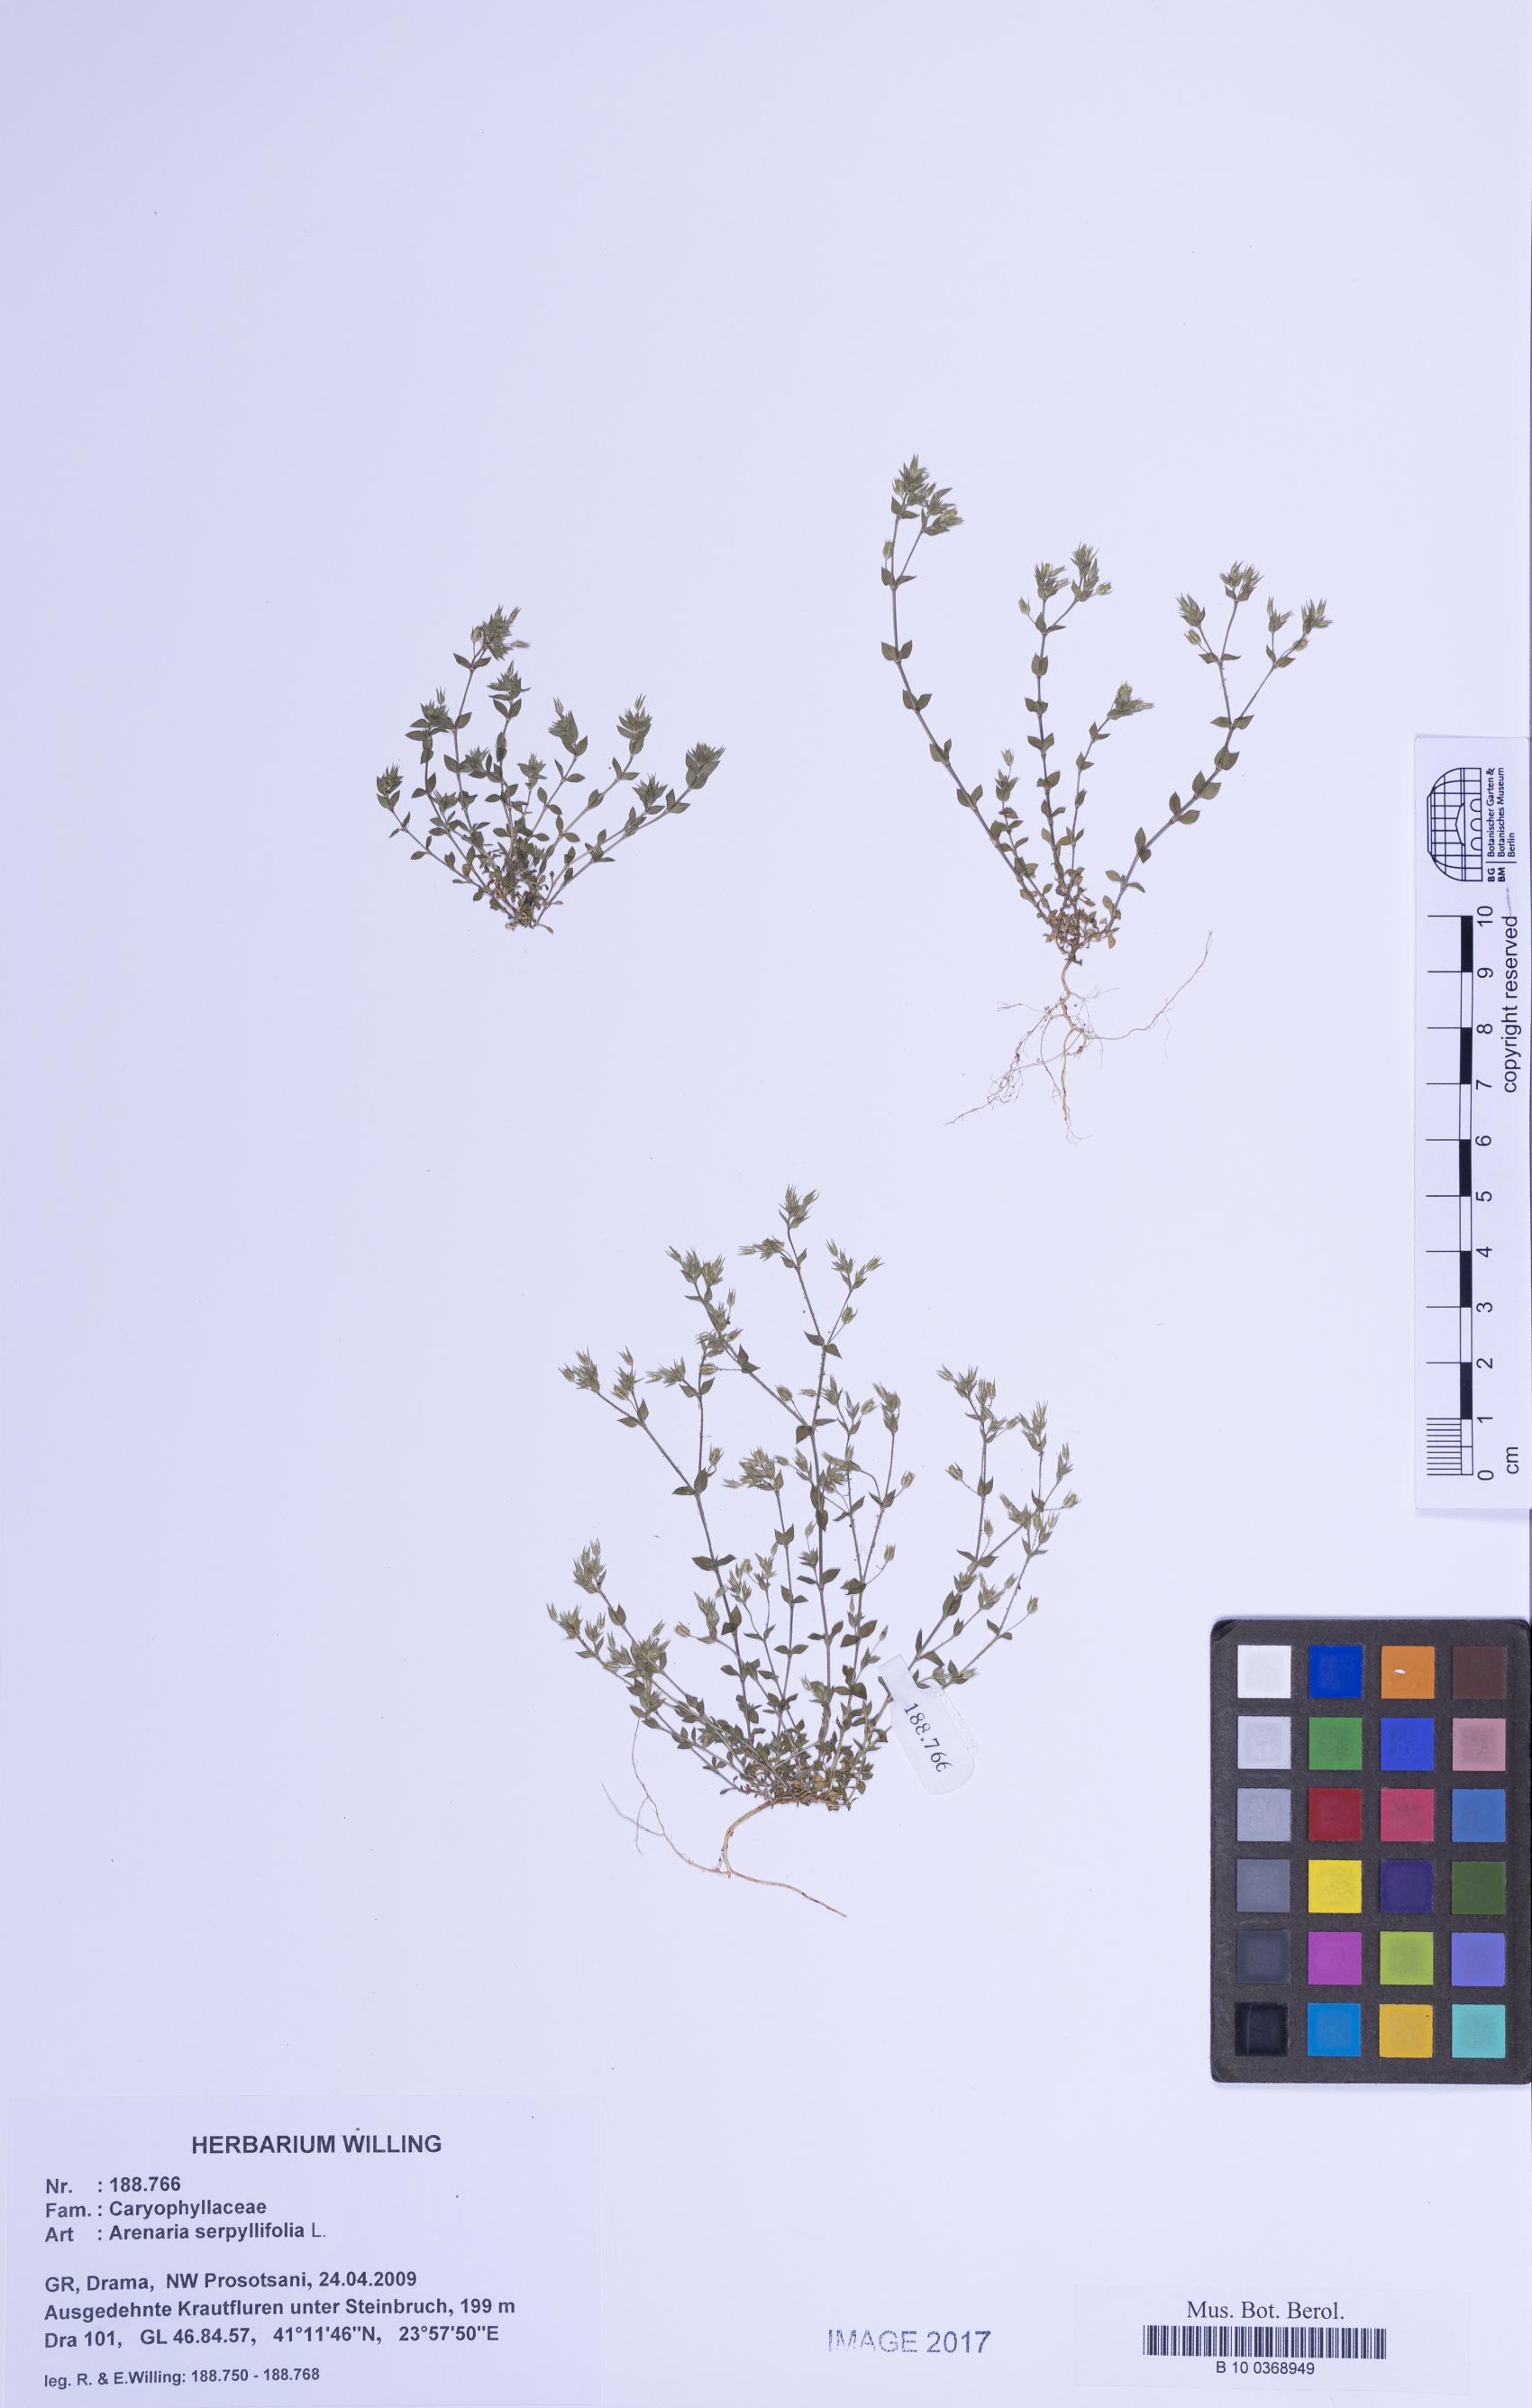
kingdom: Plantae
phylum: Tracheophyta
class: Magnoliopsida
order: Caryophyllales
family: Caryophyllaceae
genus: Arenaria
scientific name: Arenaria serpyllifolia
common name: Thyme-leaved sandwort
